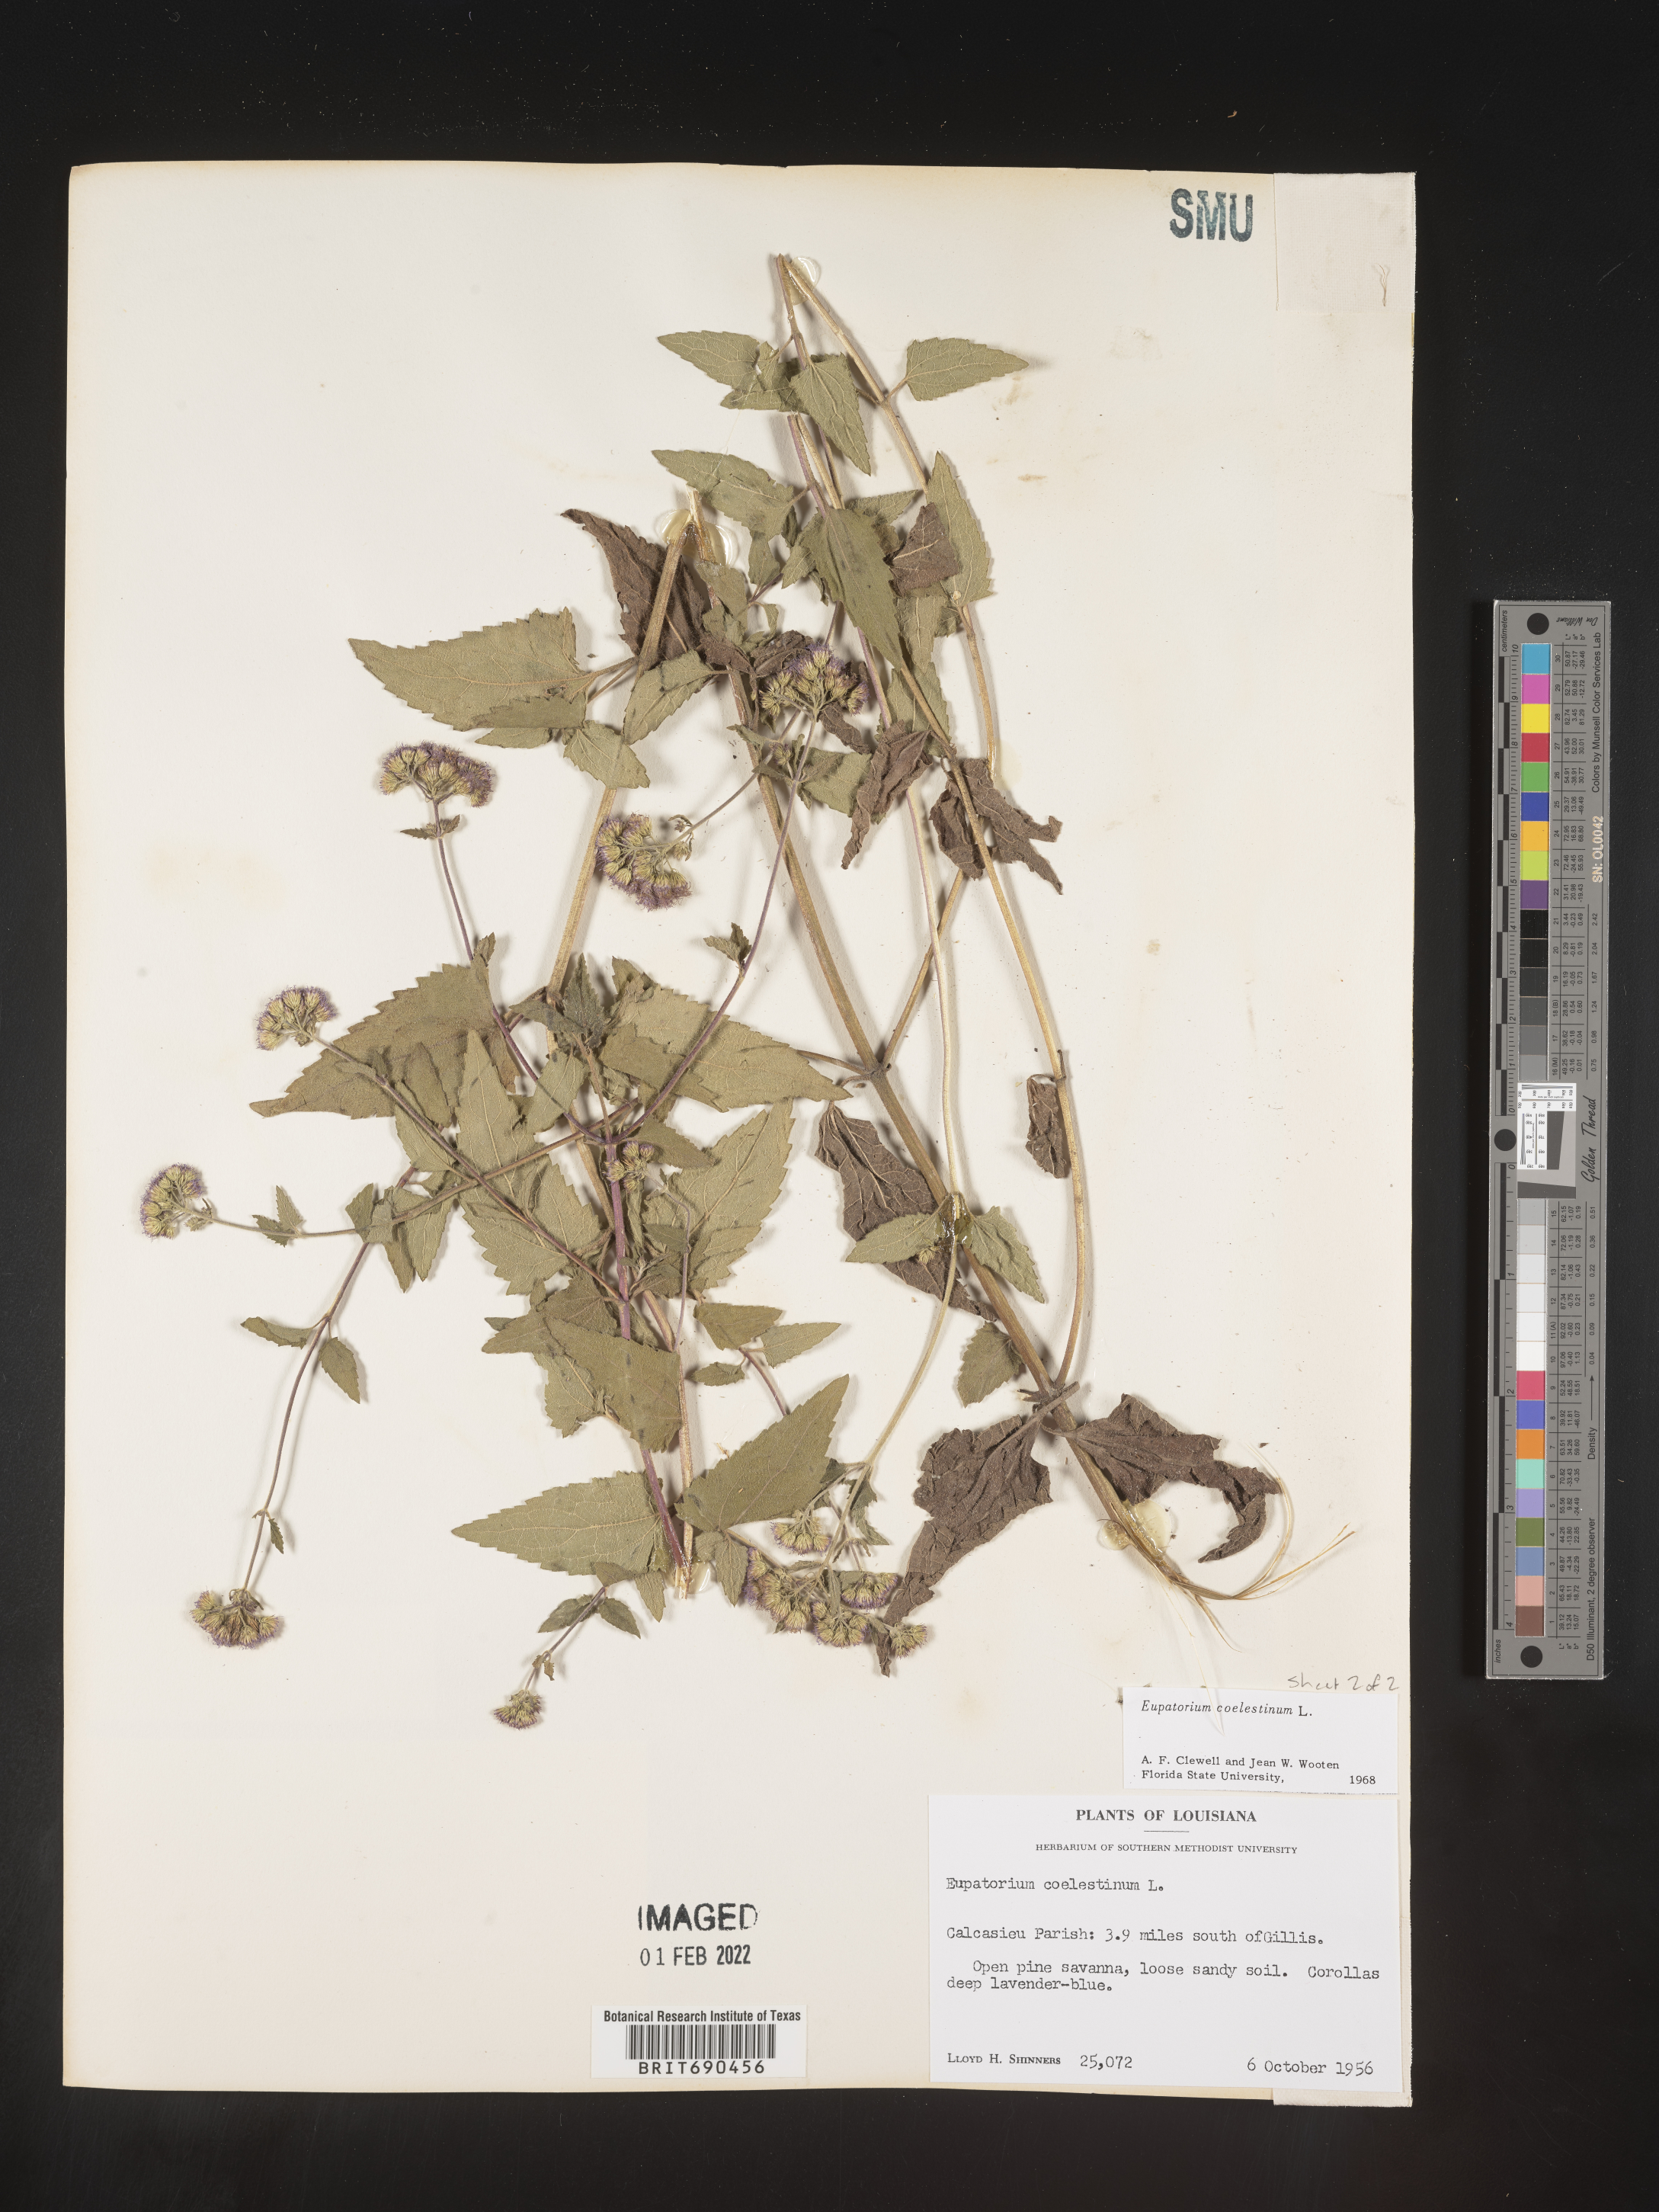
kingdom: Plantae
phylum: Tracheophyta
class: Magnoliopsida
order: Asterales
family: Asteraceae
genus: Conoclinium
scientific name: Conoclinium coelestinum
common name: Blue mistflower
